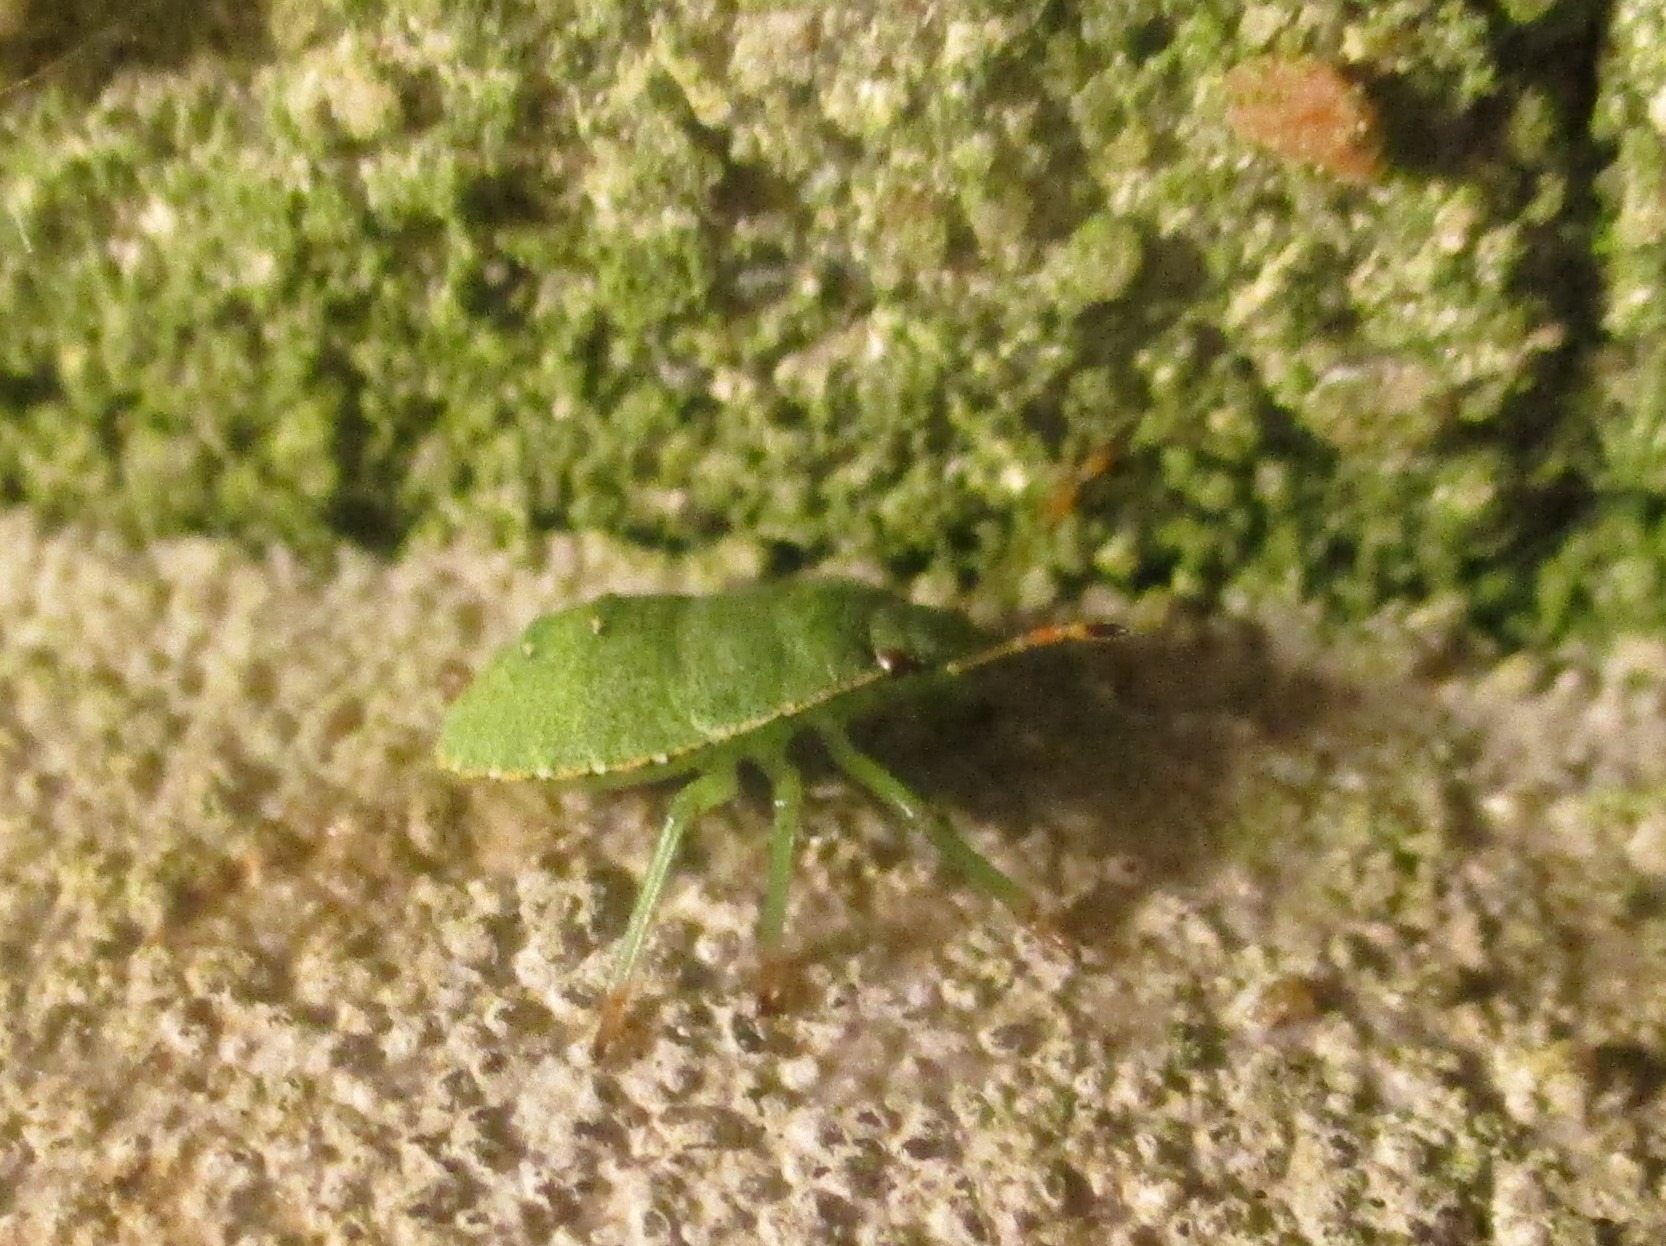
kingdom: Animalia
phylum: Arthropoda
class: Insecta
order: Hemiptera
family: Pentatomidae
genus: Palomena
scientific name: Palomena prasina
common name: Grøn bredtæge
